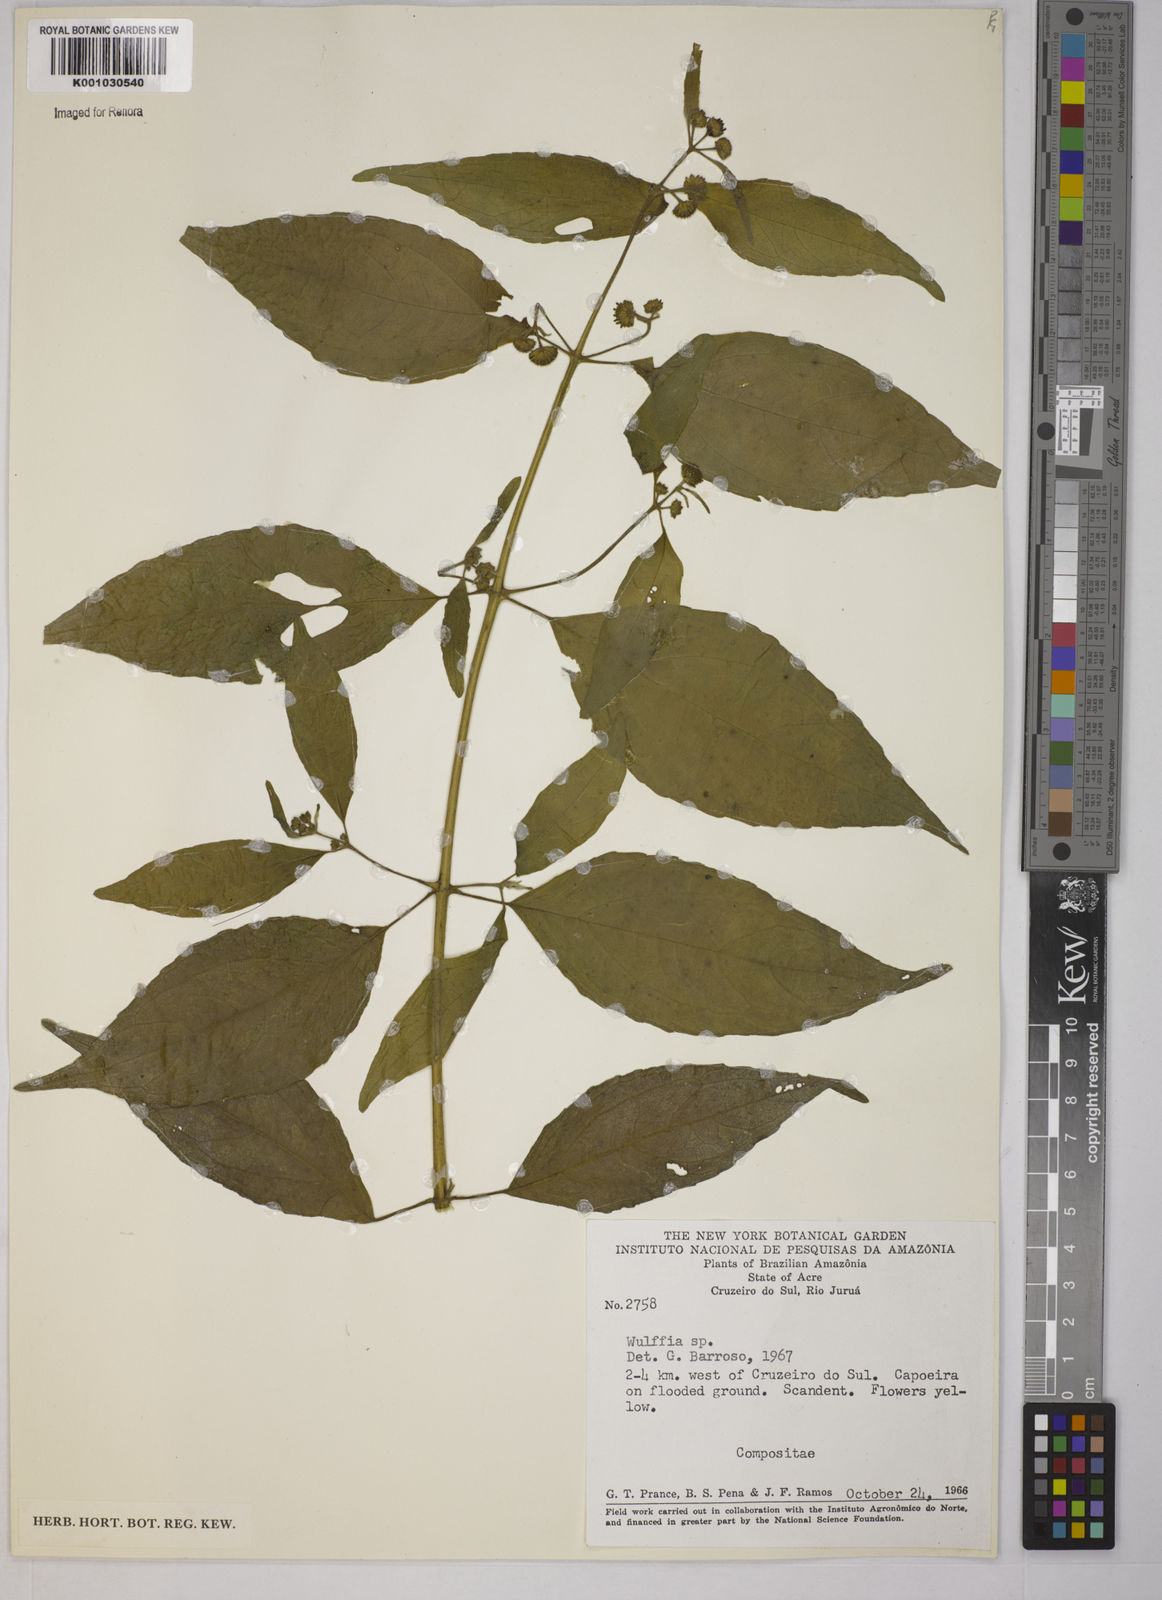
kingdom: Plantae
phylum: Tracheophyta
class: Magnoliopsida
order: Asterales
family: Asteraceae
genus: Tilesia
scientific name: Tilesia baccata
